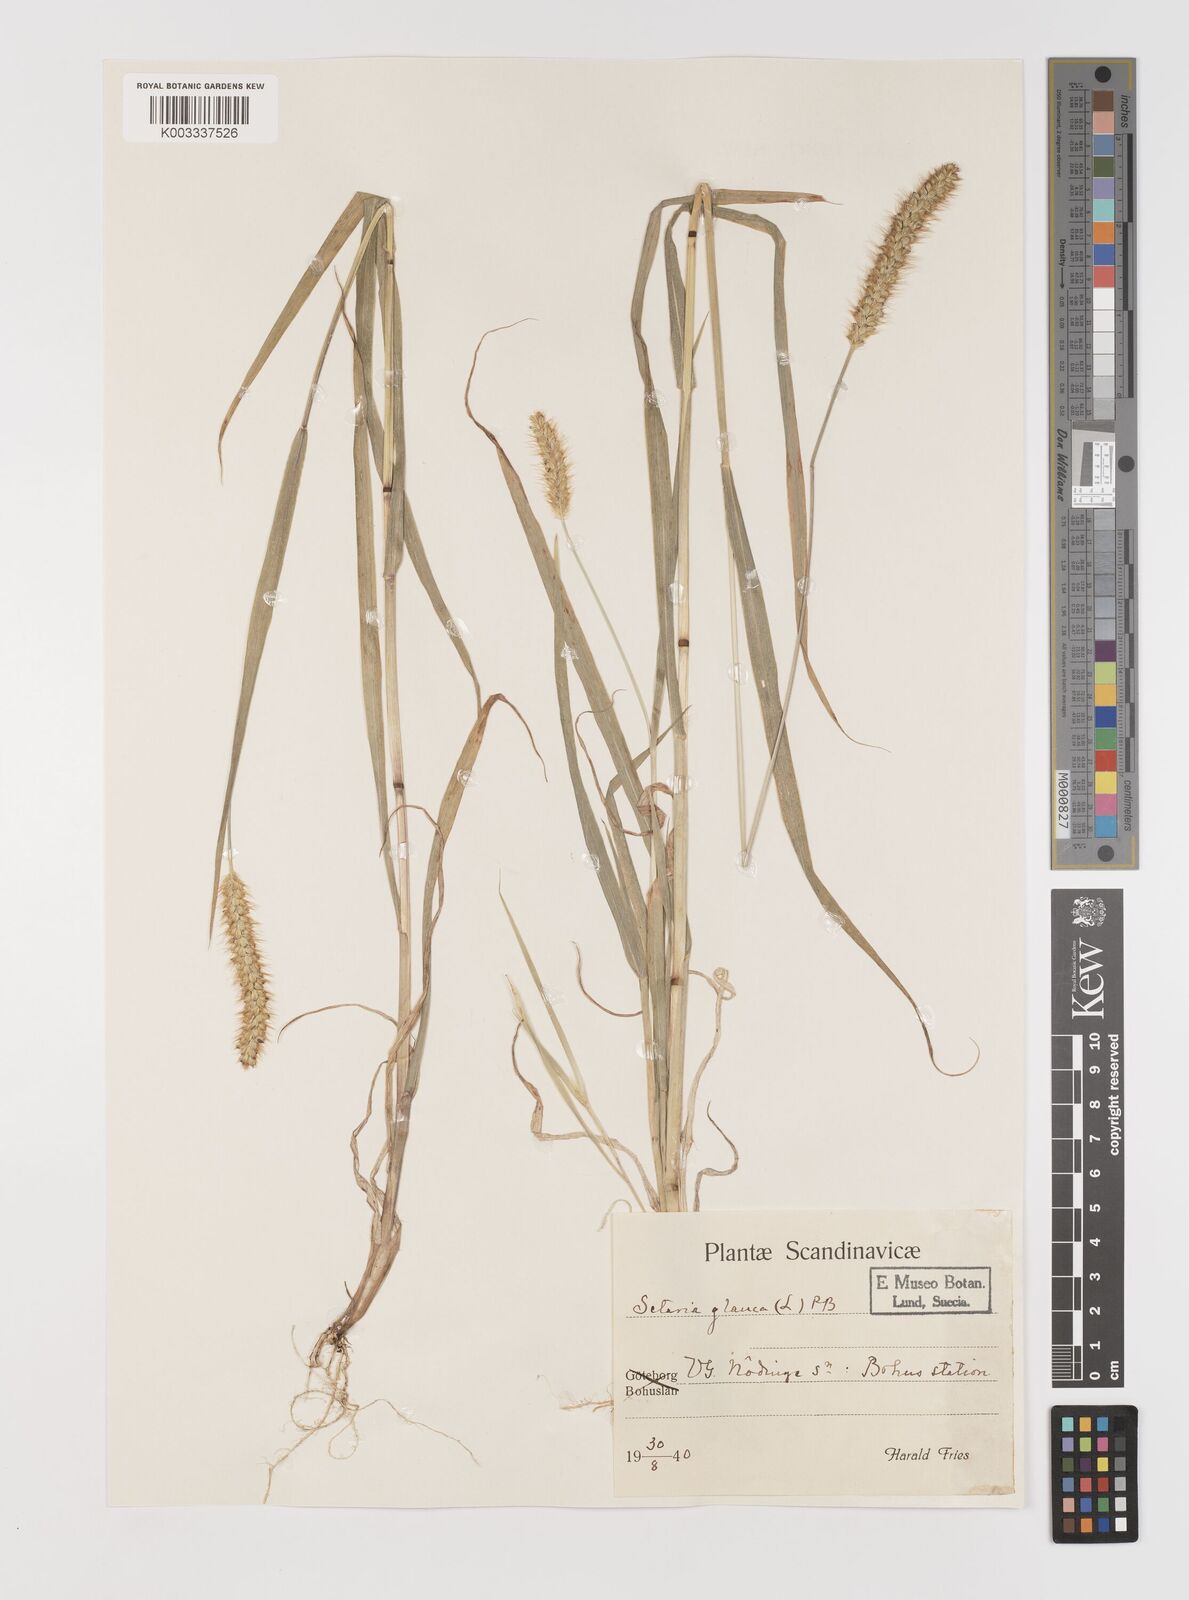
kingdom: Plantae
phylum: Tracheophyta
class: Liliopsida
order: Poales
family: Poaceae
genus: Setaria
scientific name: Setaria pumila
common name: Yellow bristle-grass
